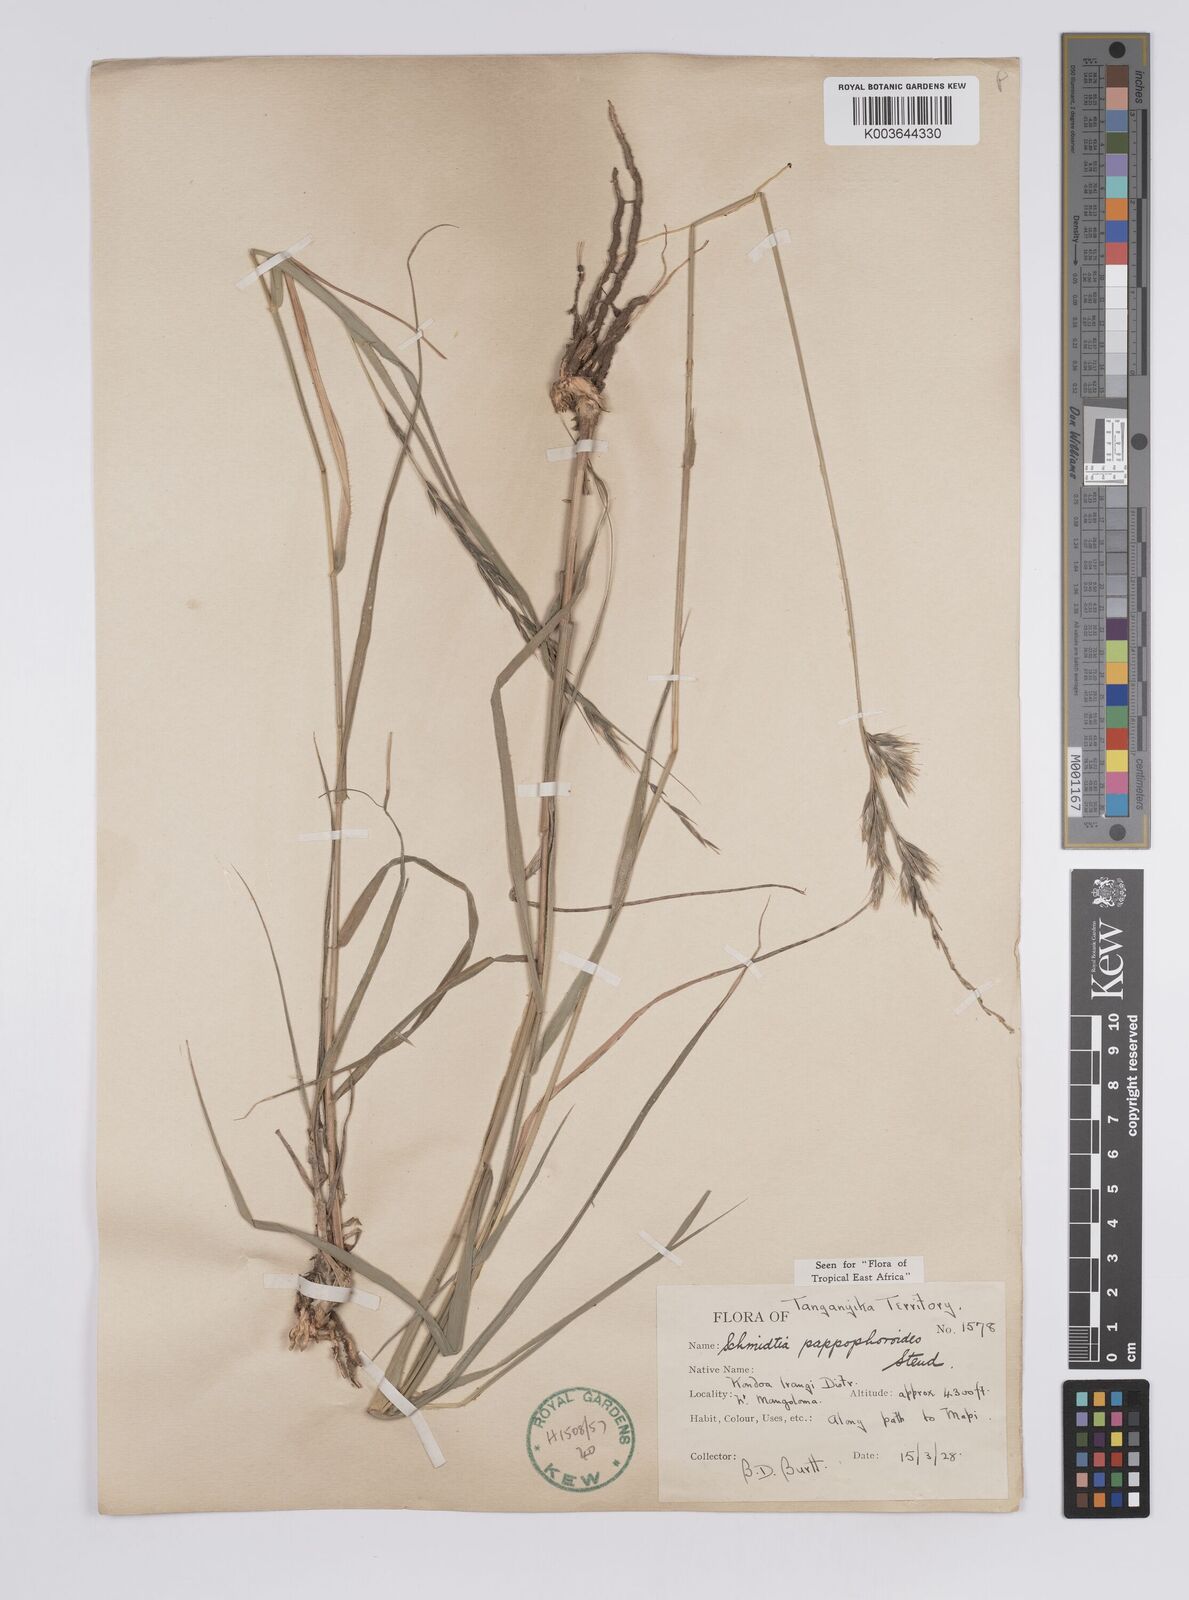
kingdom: Plantae
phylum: Tracheophyta
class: Liliopsida
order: Poales
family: Poaceae
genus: Schmidtia
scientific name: Schmidtia pappophoroides
